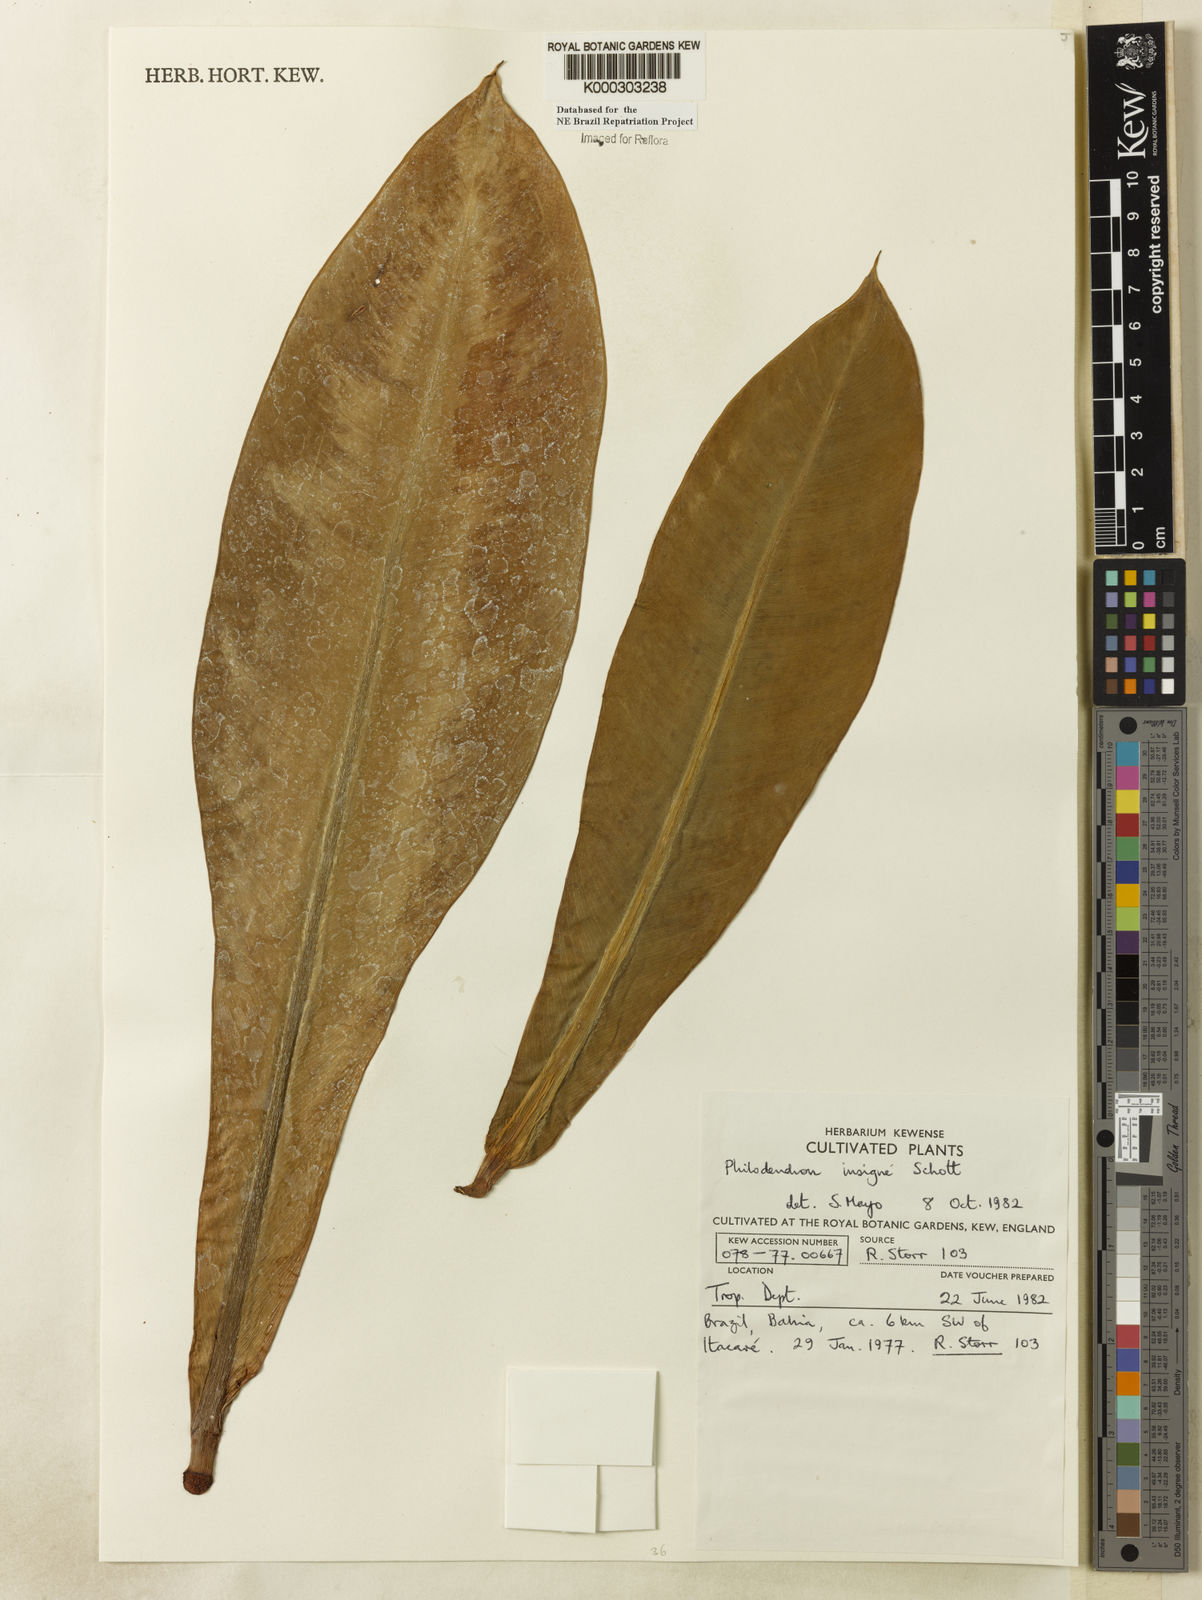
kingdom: Plantae
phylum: Tracheophyta
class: Liliopsida
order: Alismatales
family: Araceae
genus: Philodendron
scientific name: Philodendron insigne
